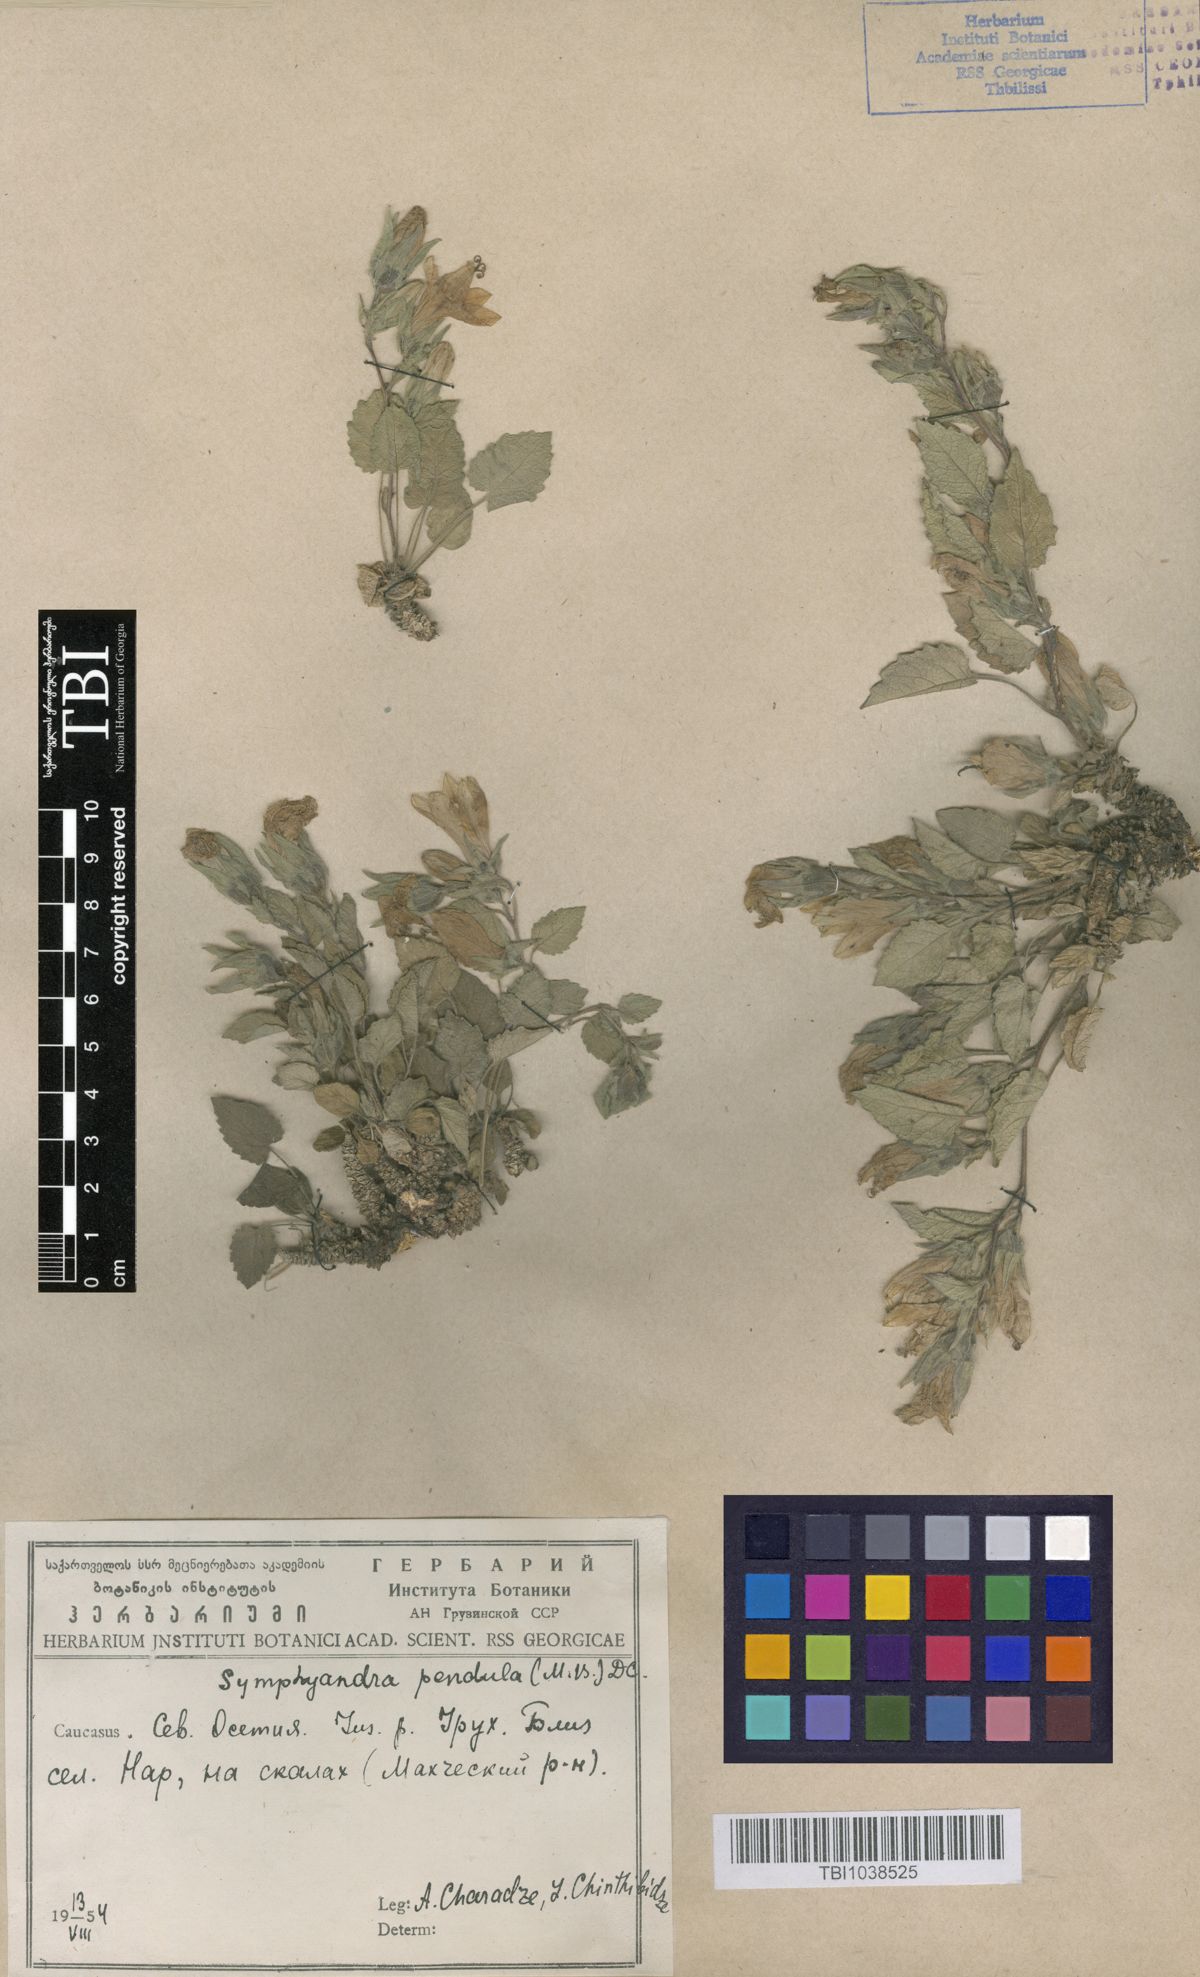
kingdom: Plantae
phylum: Tracheophyta
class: Magnoliopsida
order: Asterales
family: Campanulaceae
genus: Campanula
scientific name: Campanula pendula
